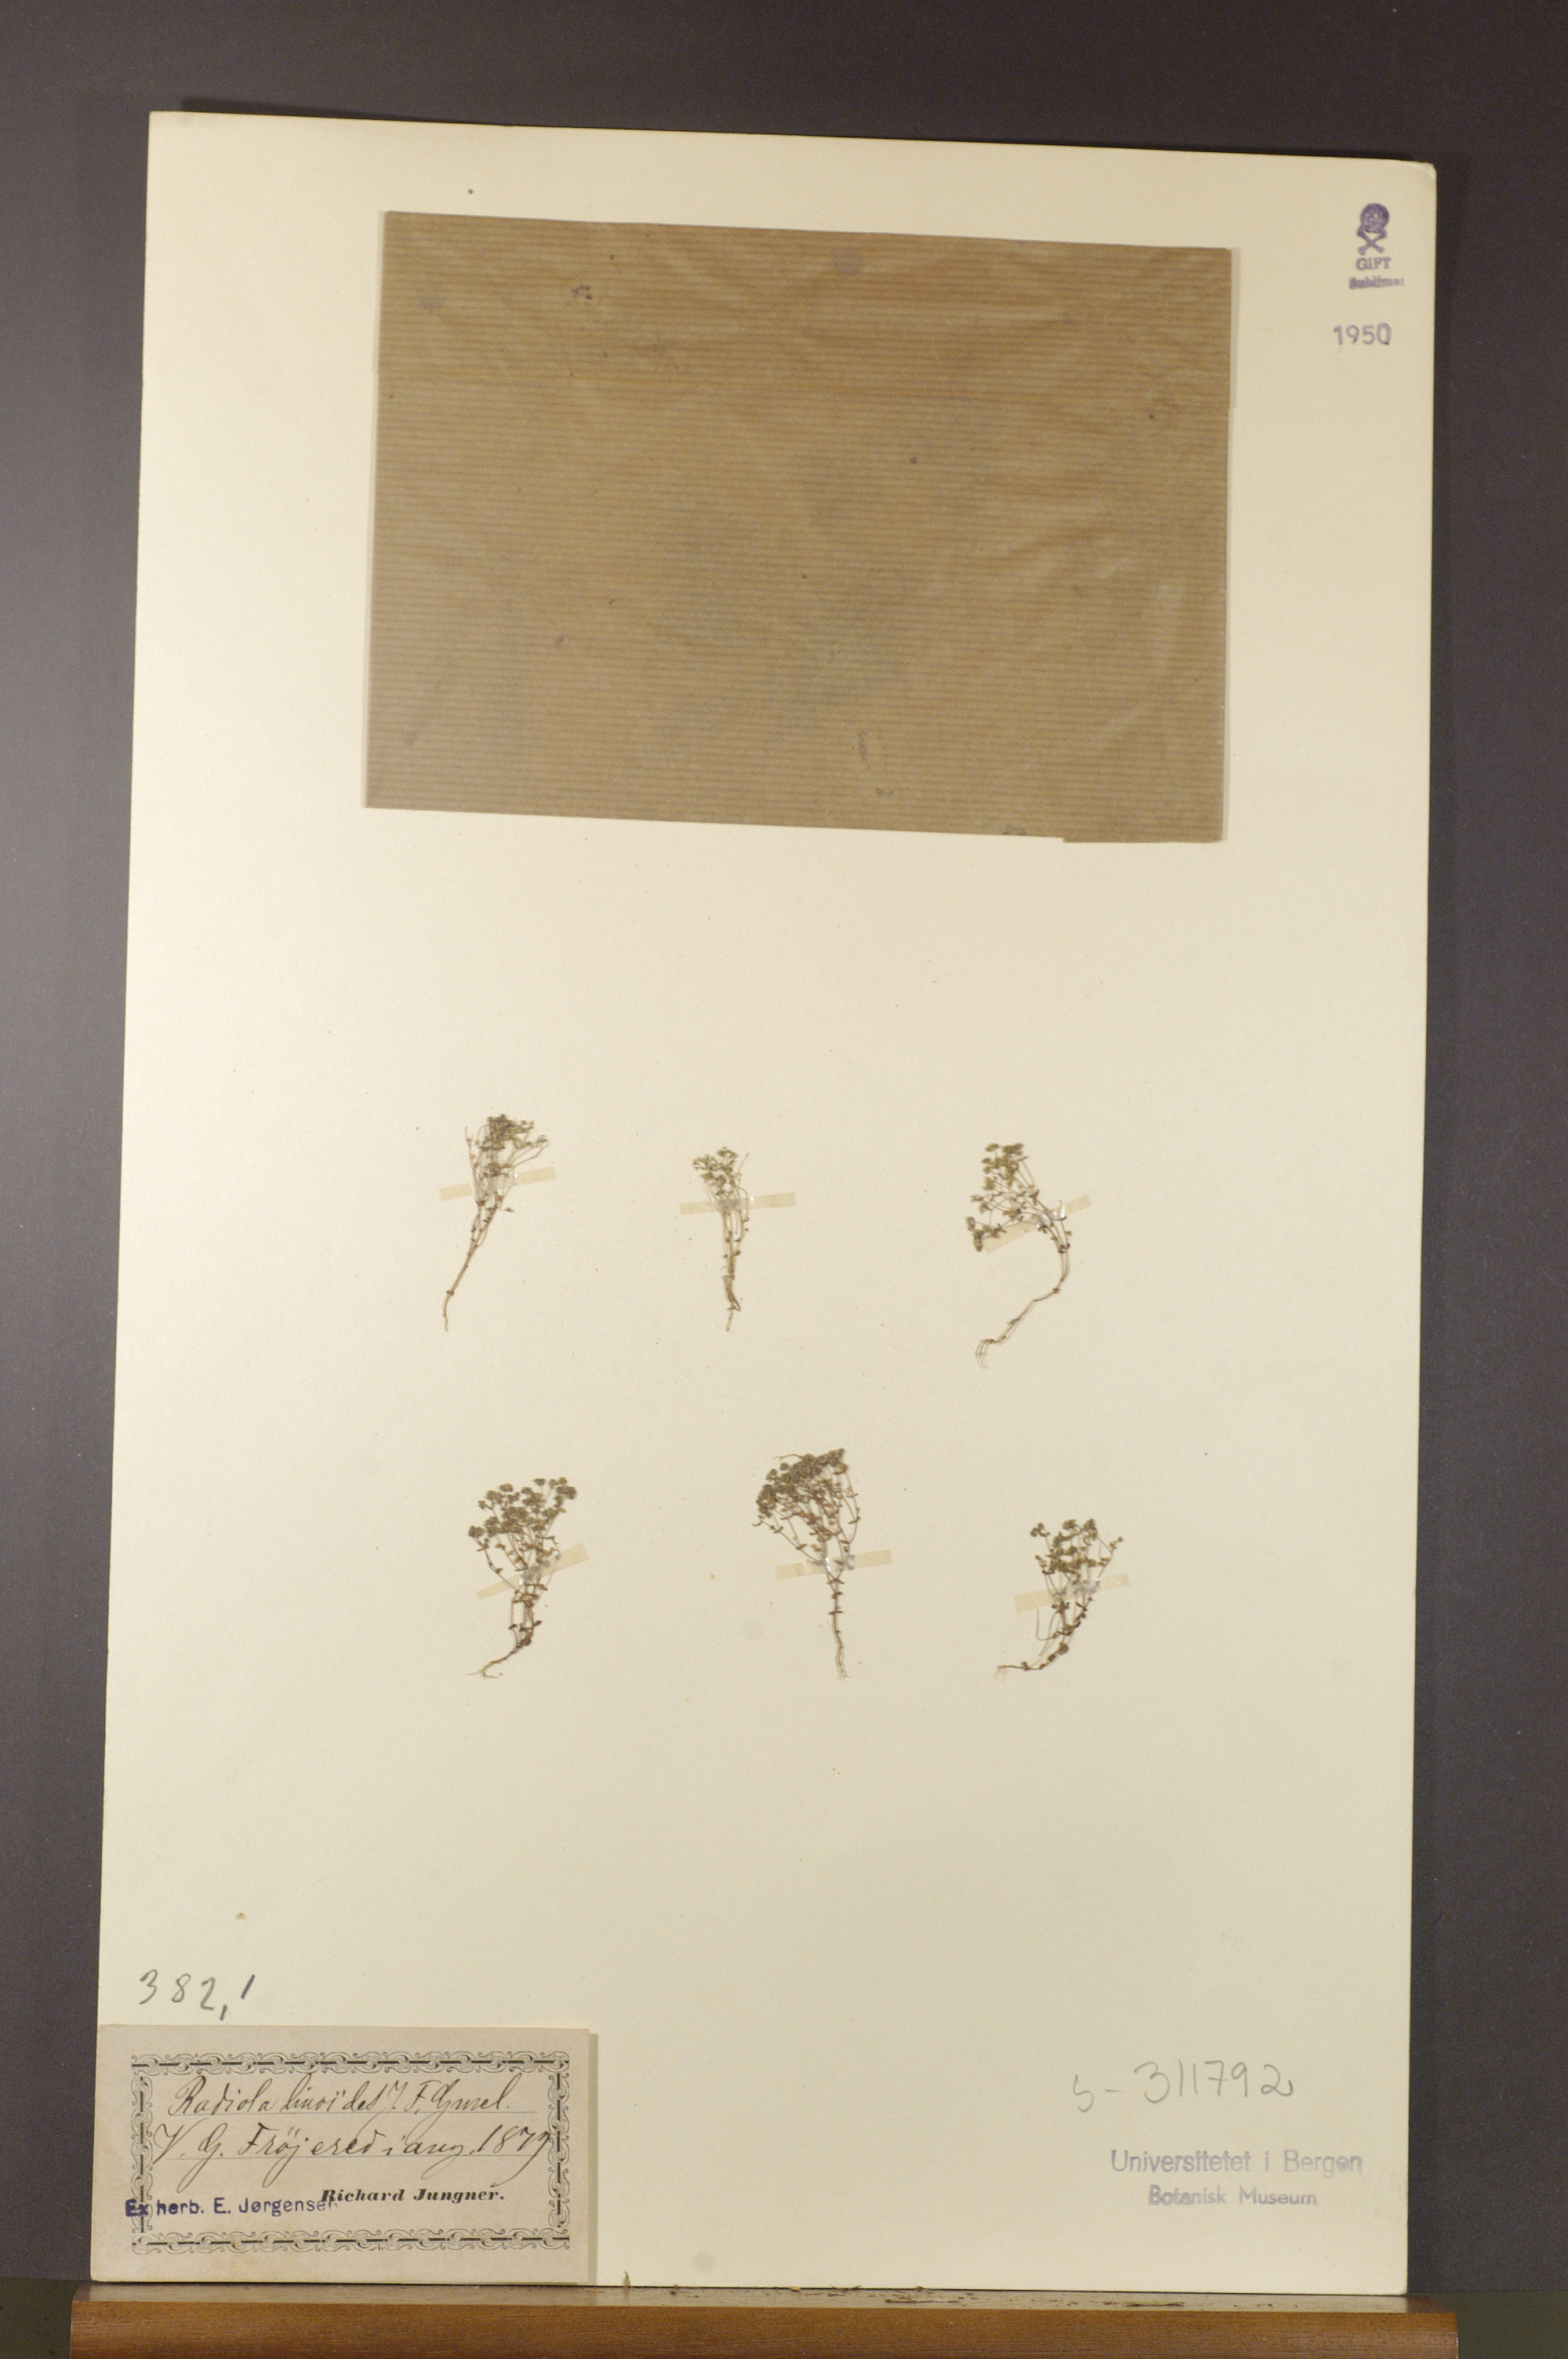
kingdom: Plantae
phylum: Tracheophyta
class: Magnoliopsida
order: Malpighiales
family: Linaceae
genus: Radiola
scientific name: Radiola linoides
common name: Allseed
